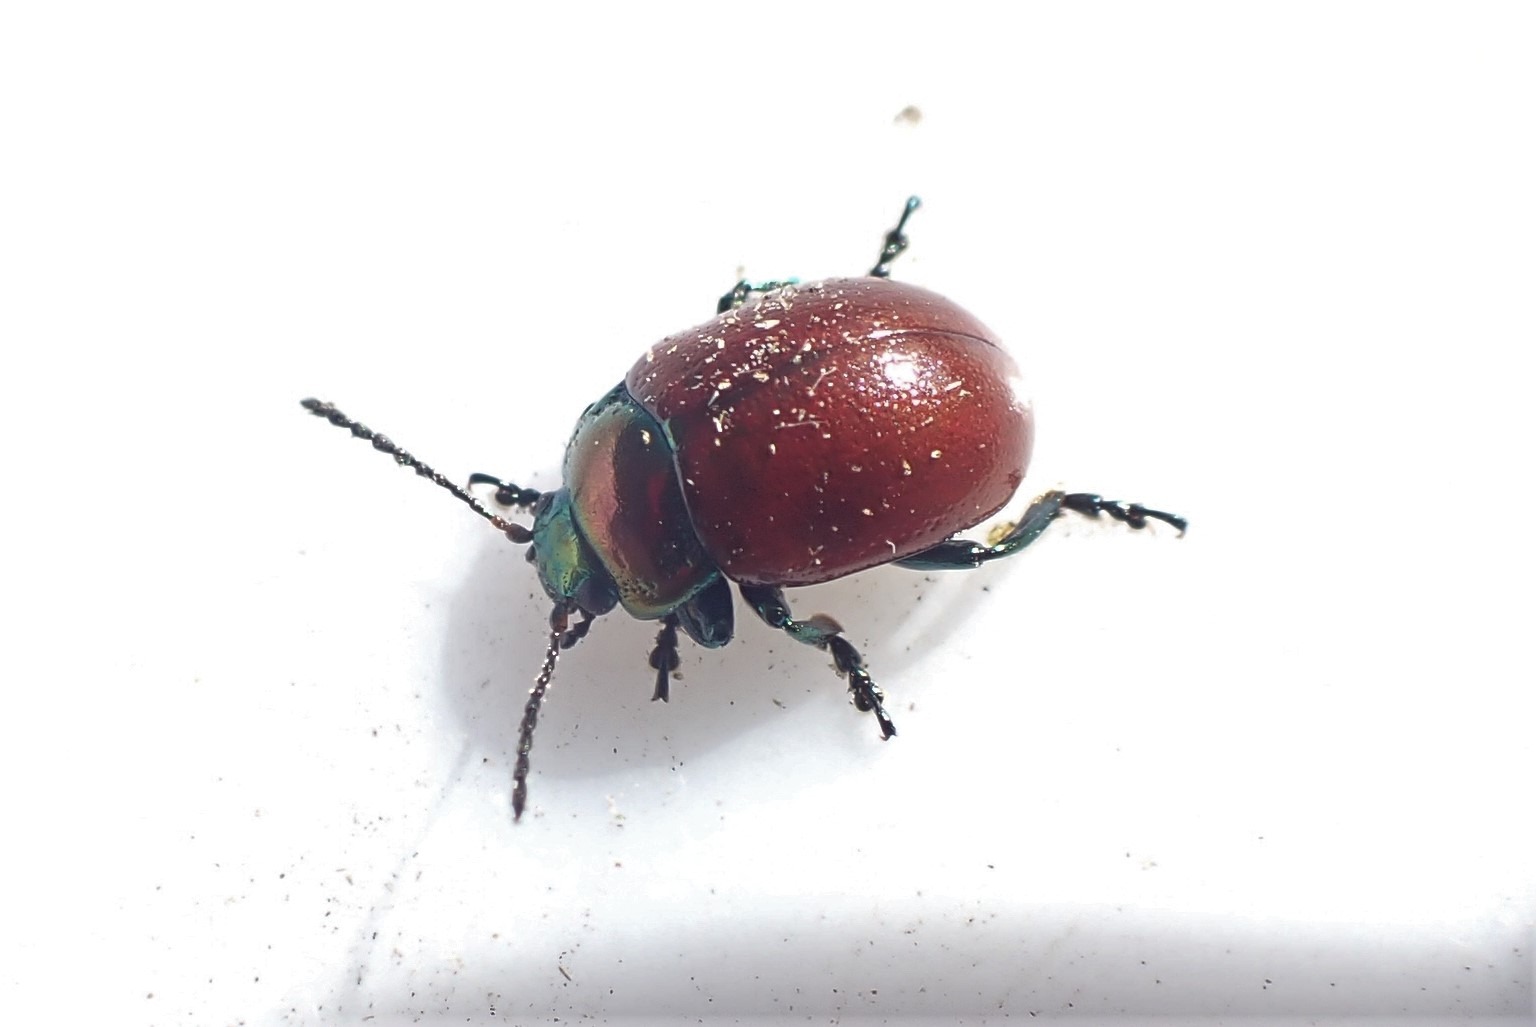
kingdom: Animalia
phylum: Arthropoda
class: Insecta
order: Coleoptera
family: Chrysomelidae
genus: Chrysomela
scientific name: Chrysomela polita
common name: Forskelligfarvet guldbille
